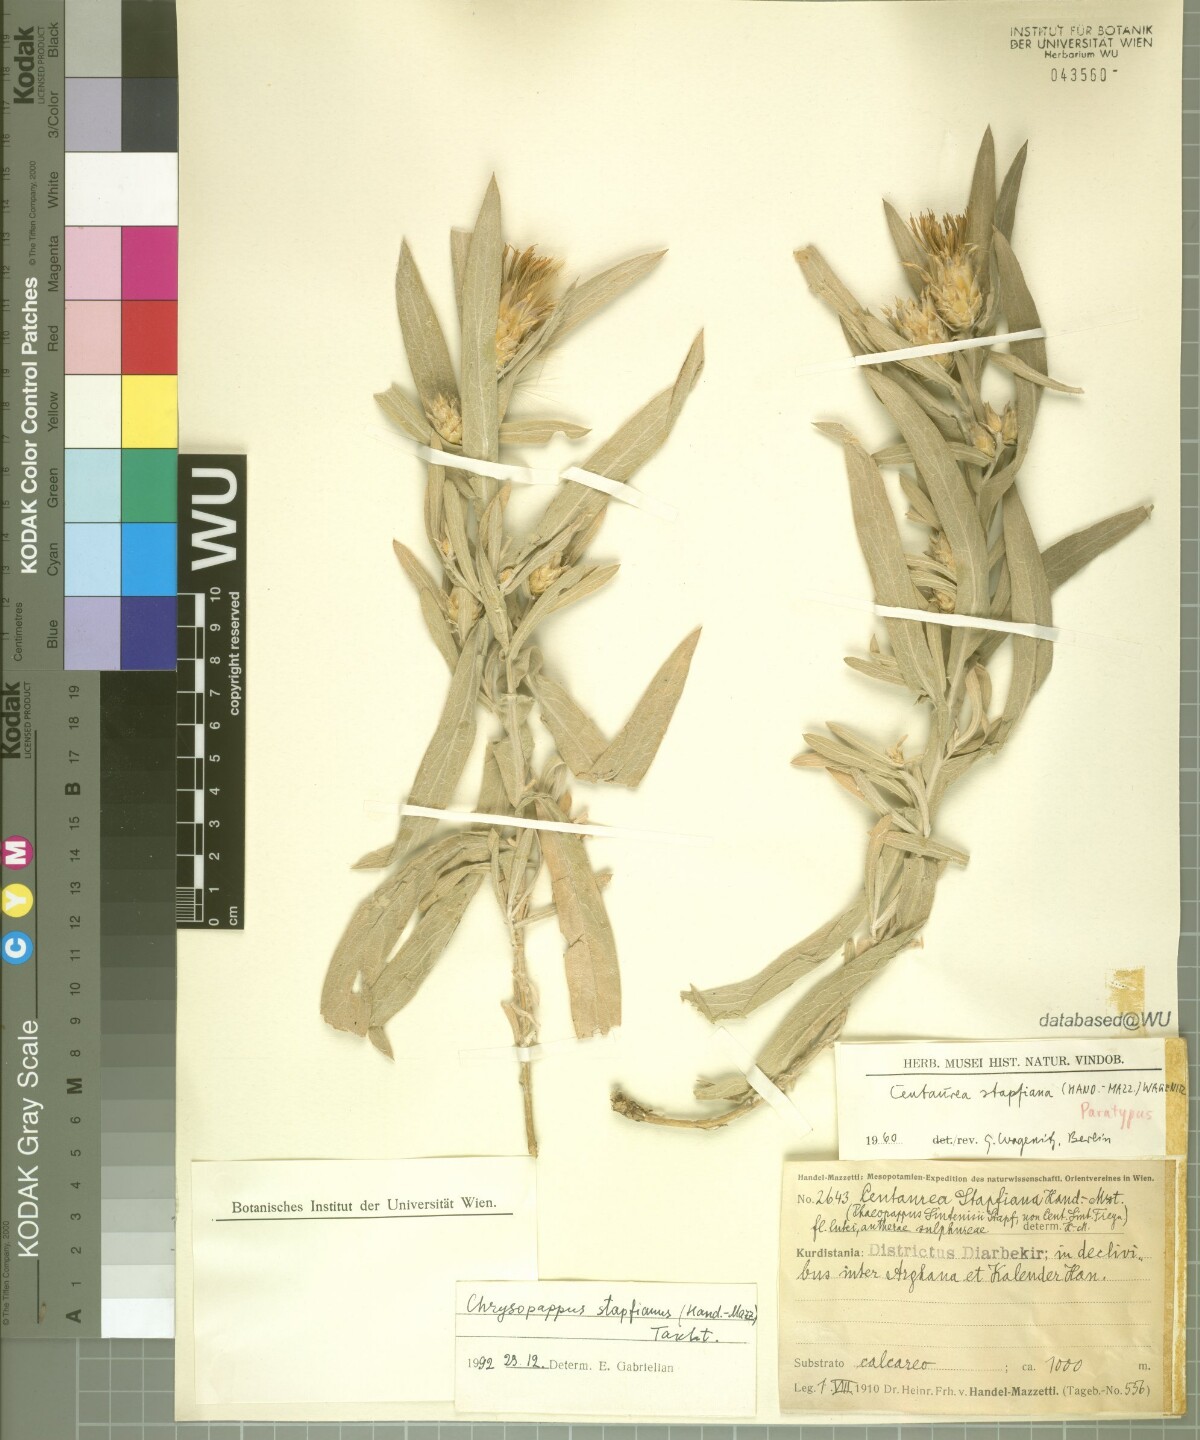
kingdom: Plantae
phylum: Tracheophyta
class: Magnoliopsida
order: Asterales
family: Asteraceae
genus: Centaurea
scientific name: Centaurea stapfiana
